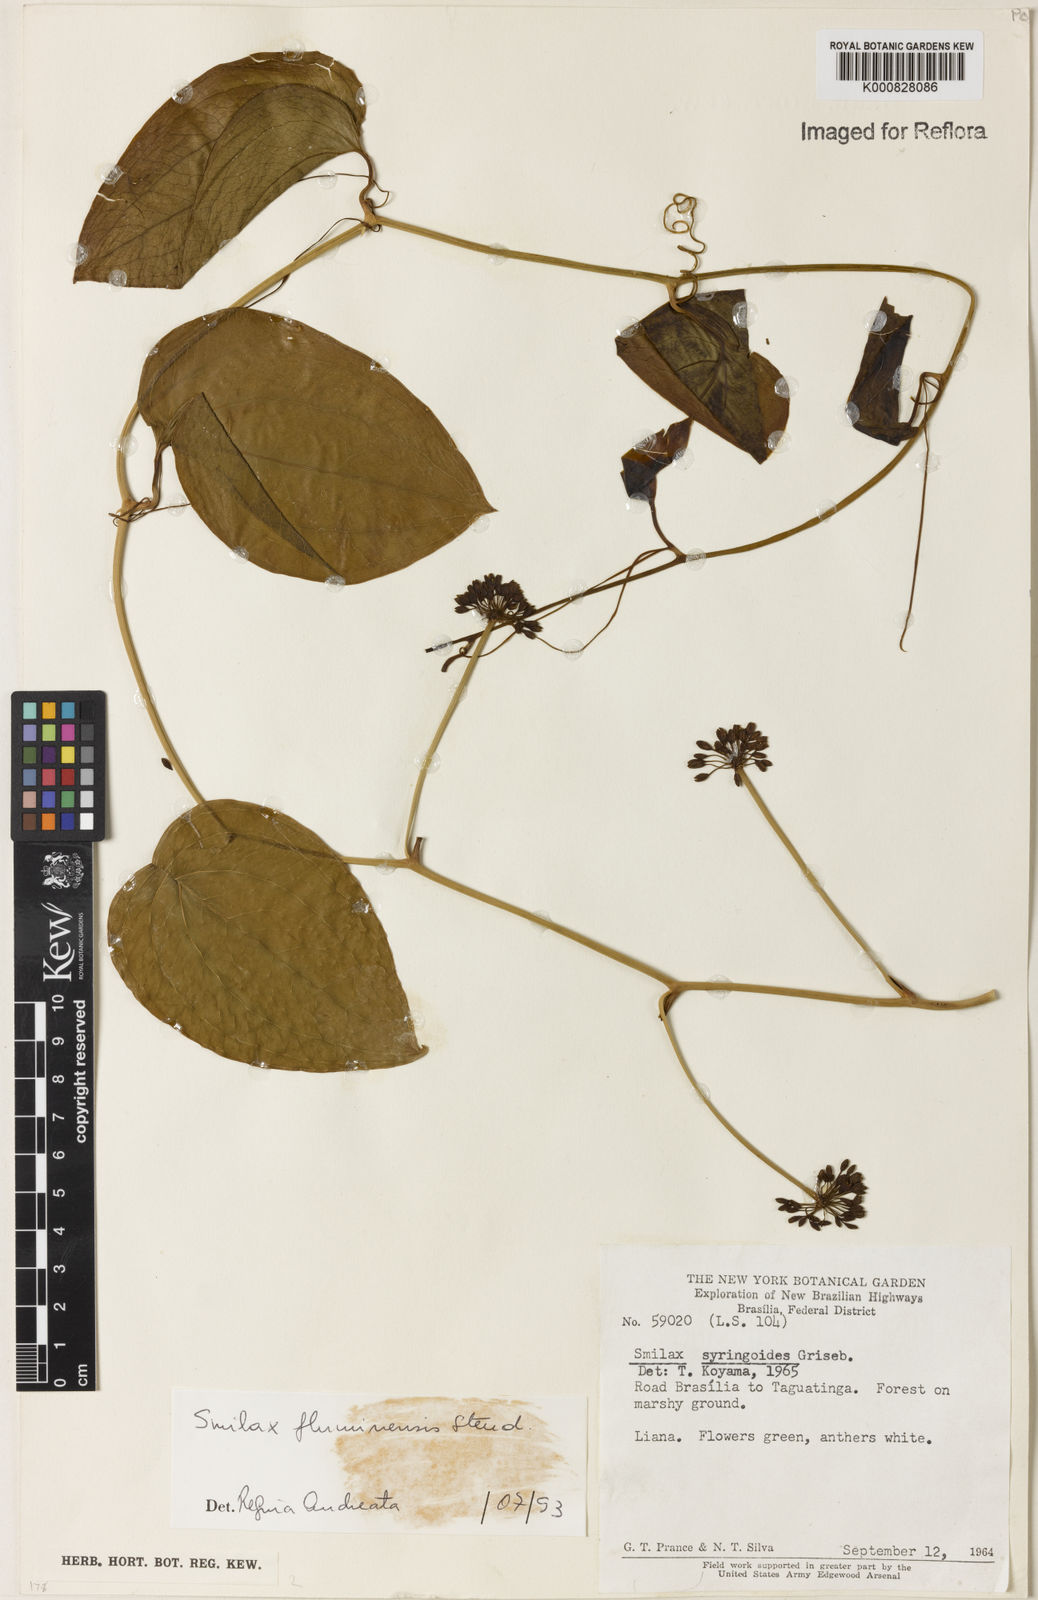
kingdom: Plantae
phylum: Tracheophyta
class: Liliopsida
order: Liliales
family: Smilacaceae
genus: Smilax
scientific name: Smilax fluminensis
